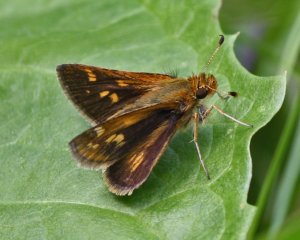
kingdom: Animalia
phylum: Arthropoda
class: Insecta
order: Lepidoptera
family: Hesperiidae
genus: Polites
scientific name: Polites coras
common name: Peck's Skipper
